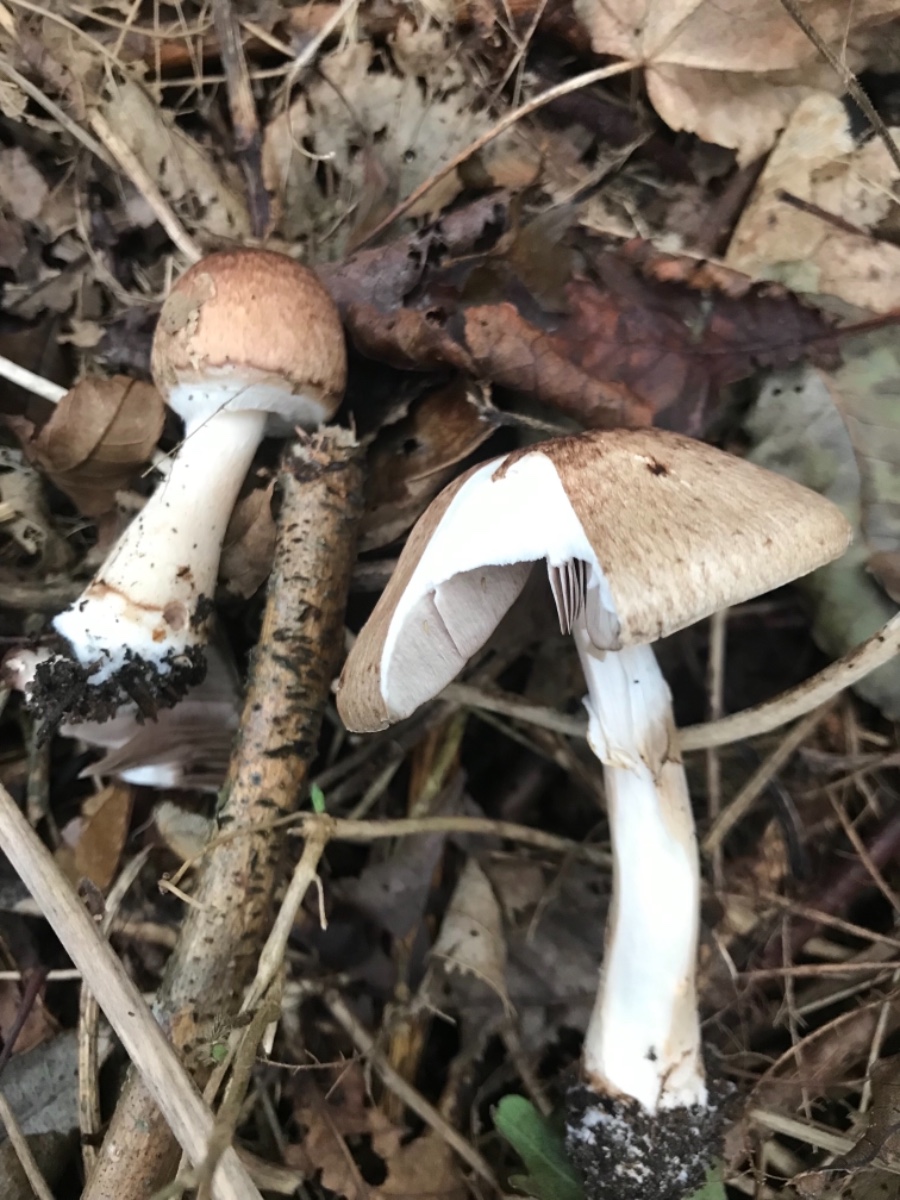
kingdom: Fungi
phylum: Basidiomycota
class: Agaricomycetes
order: Agaricales
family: Agaricaceae
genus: Agaricus
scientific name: Agaricus impudicus
